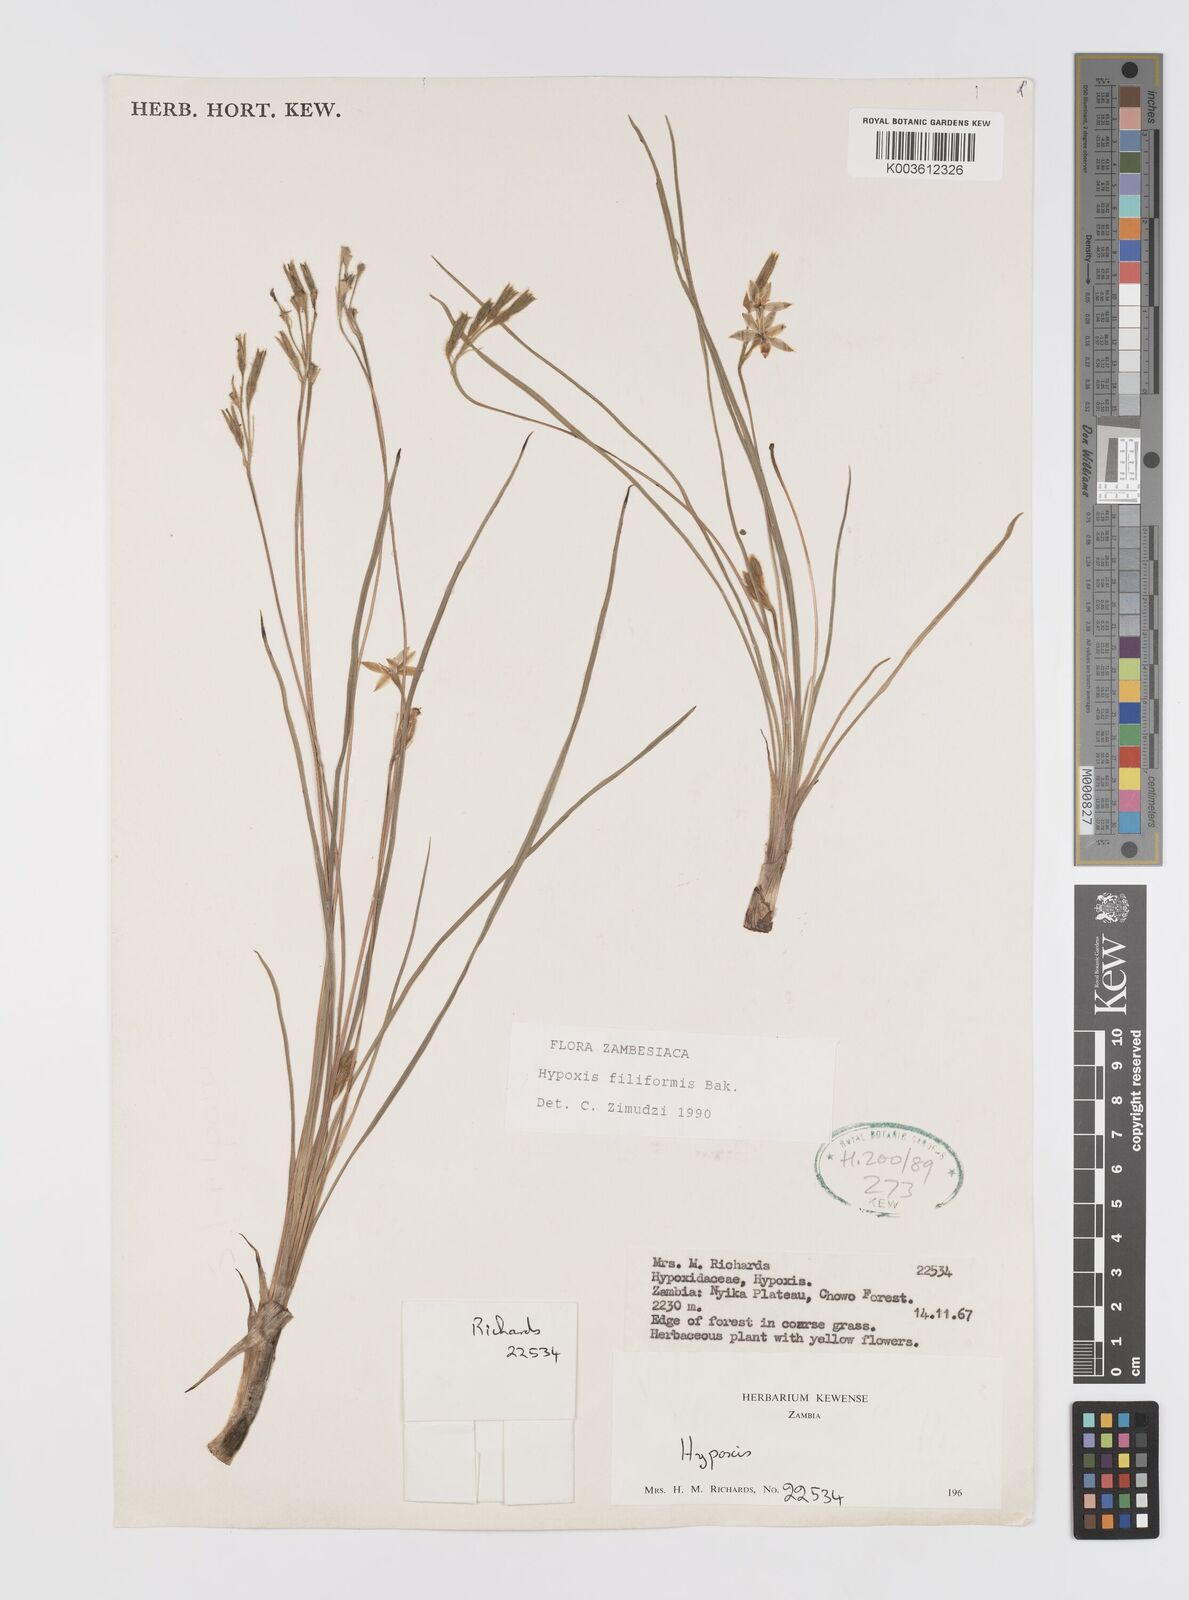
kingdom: Plantae
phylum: Tracheophyta
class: Liliopsida
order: Asparagales
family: Hypoxidaceae
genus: Hypoxis
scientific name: Hypoxis filiformis
